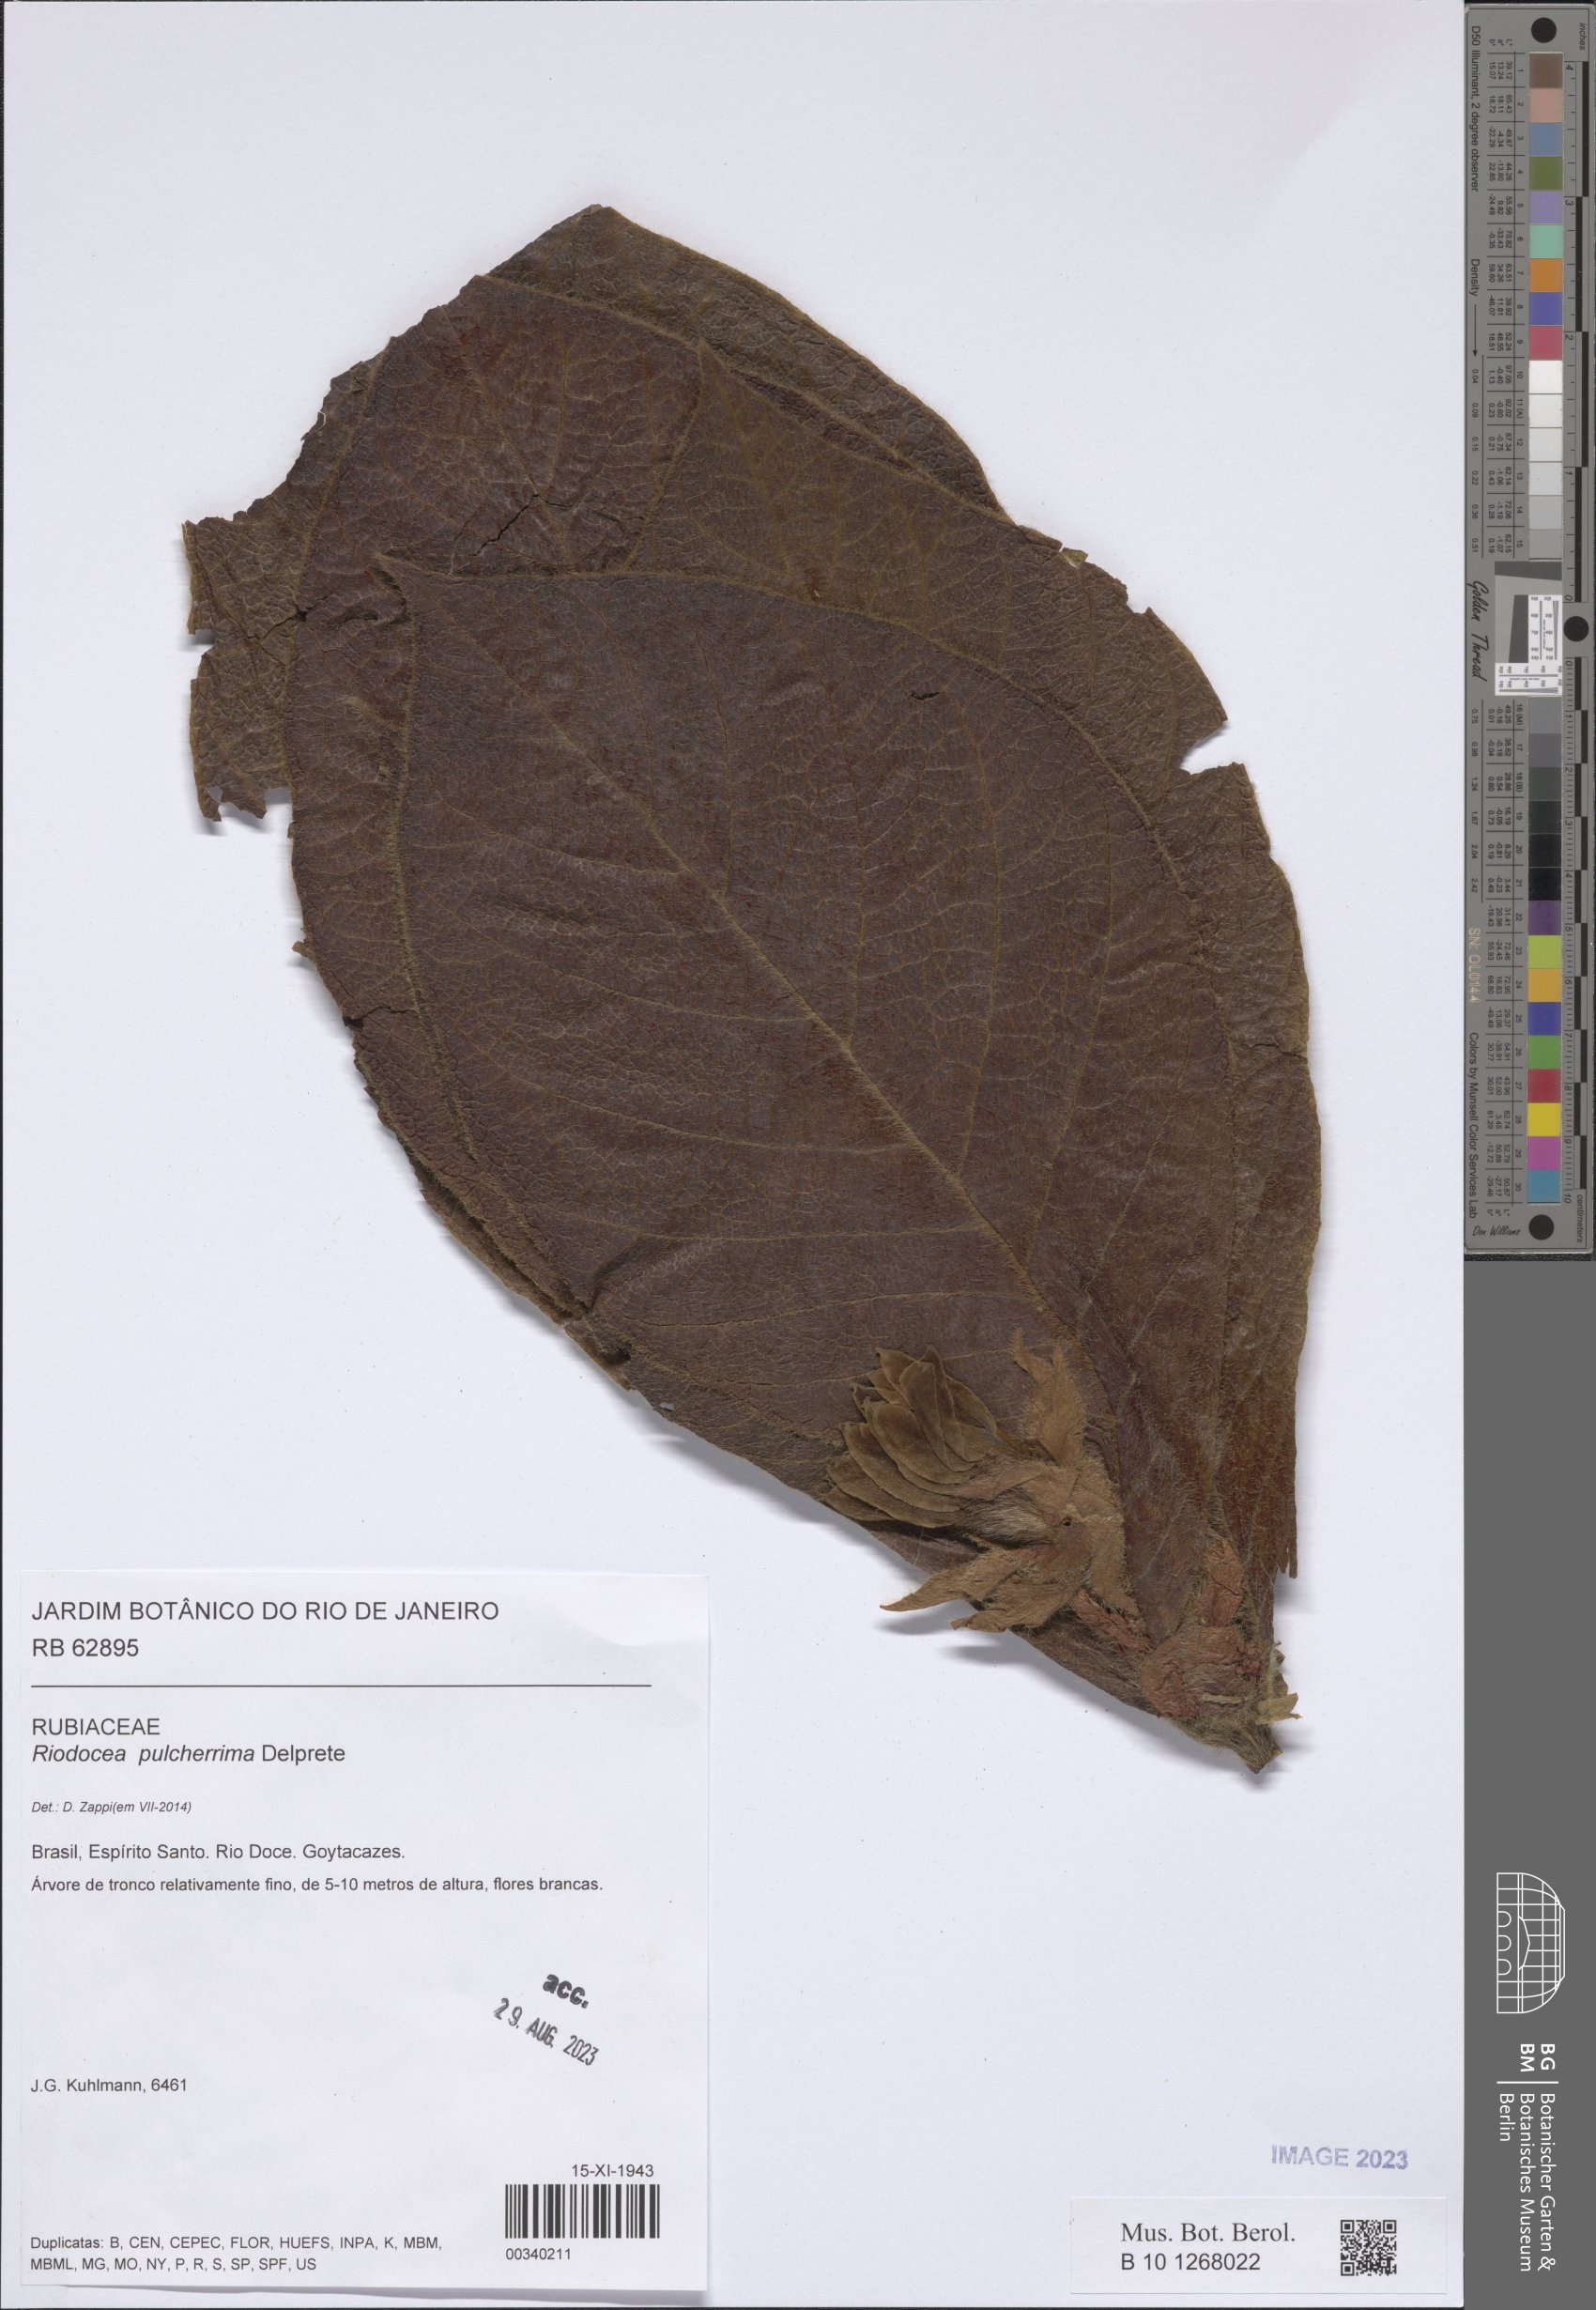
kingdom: Plantae
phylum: Tracheophyta
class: Magnoliopsida
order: Gentianales
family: Rubiaceae
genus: Riodocea
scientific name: Riodocea pulcherrima
